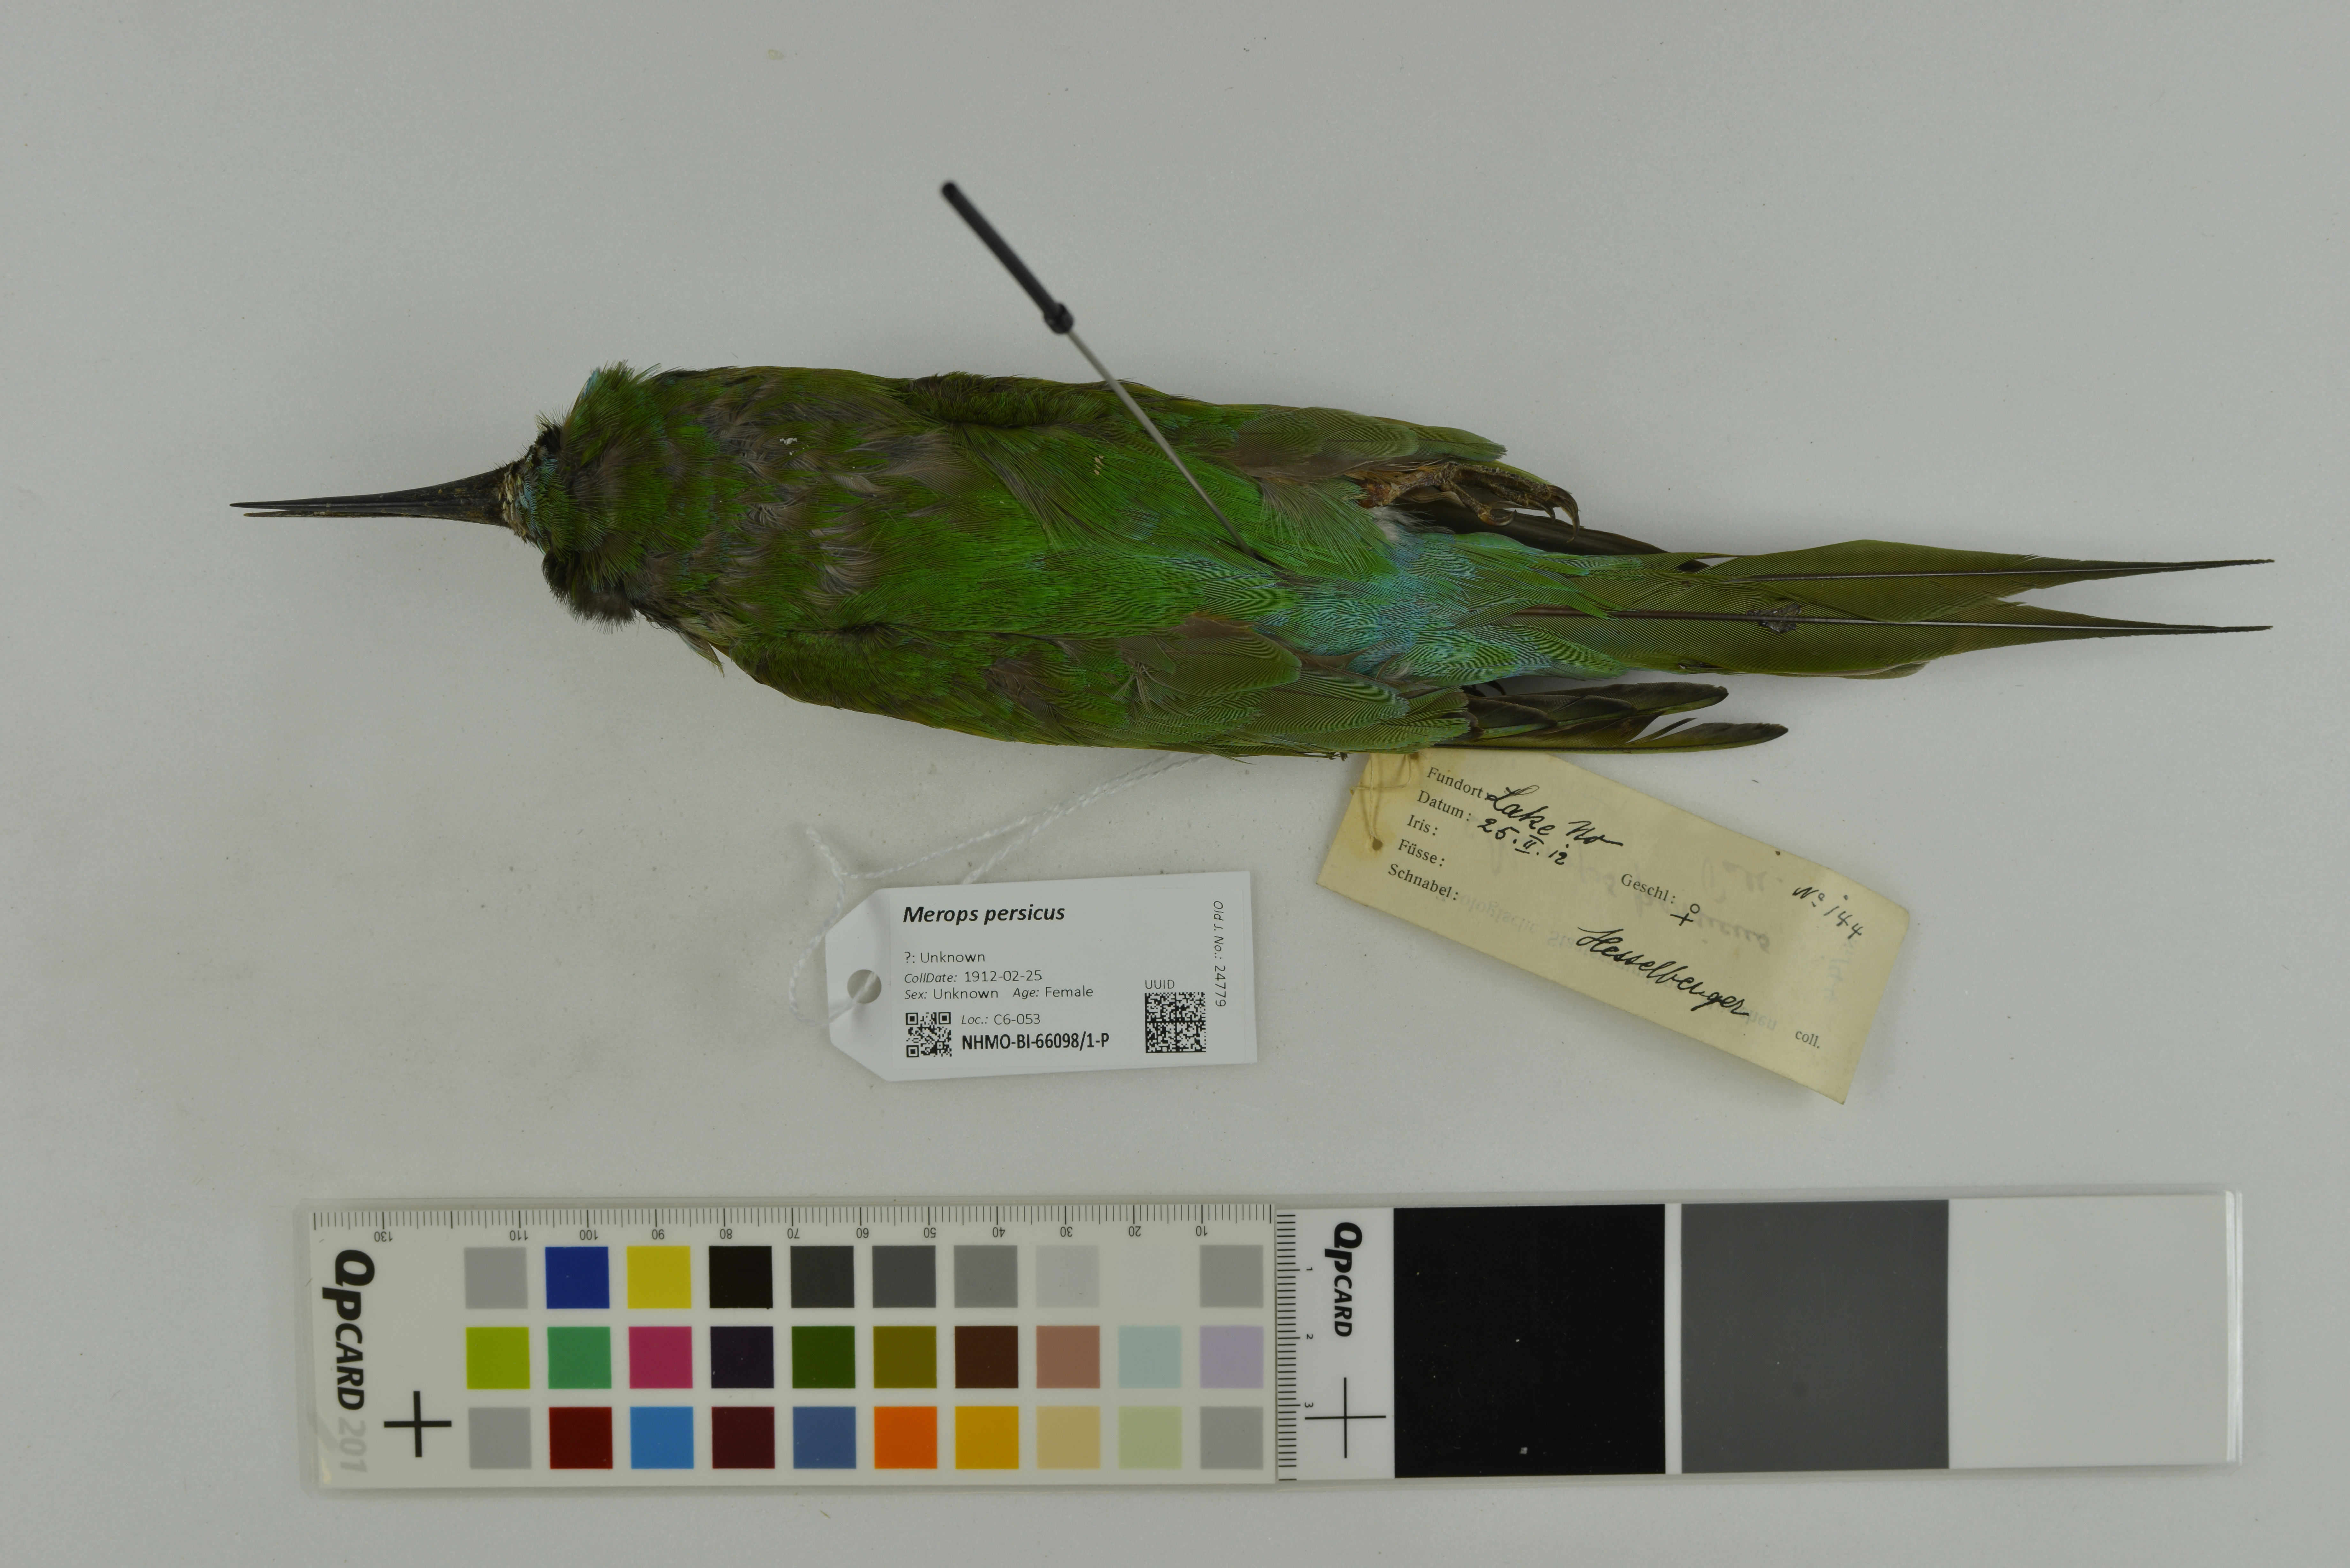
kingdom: Animalia
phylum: Chordata
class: Aves
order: Coraciiformes
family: Meropidae
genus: Merops
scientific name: Merops persicus
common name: Blue-cheeked bee-eater
